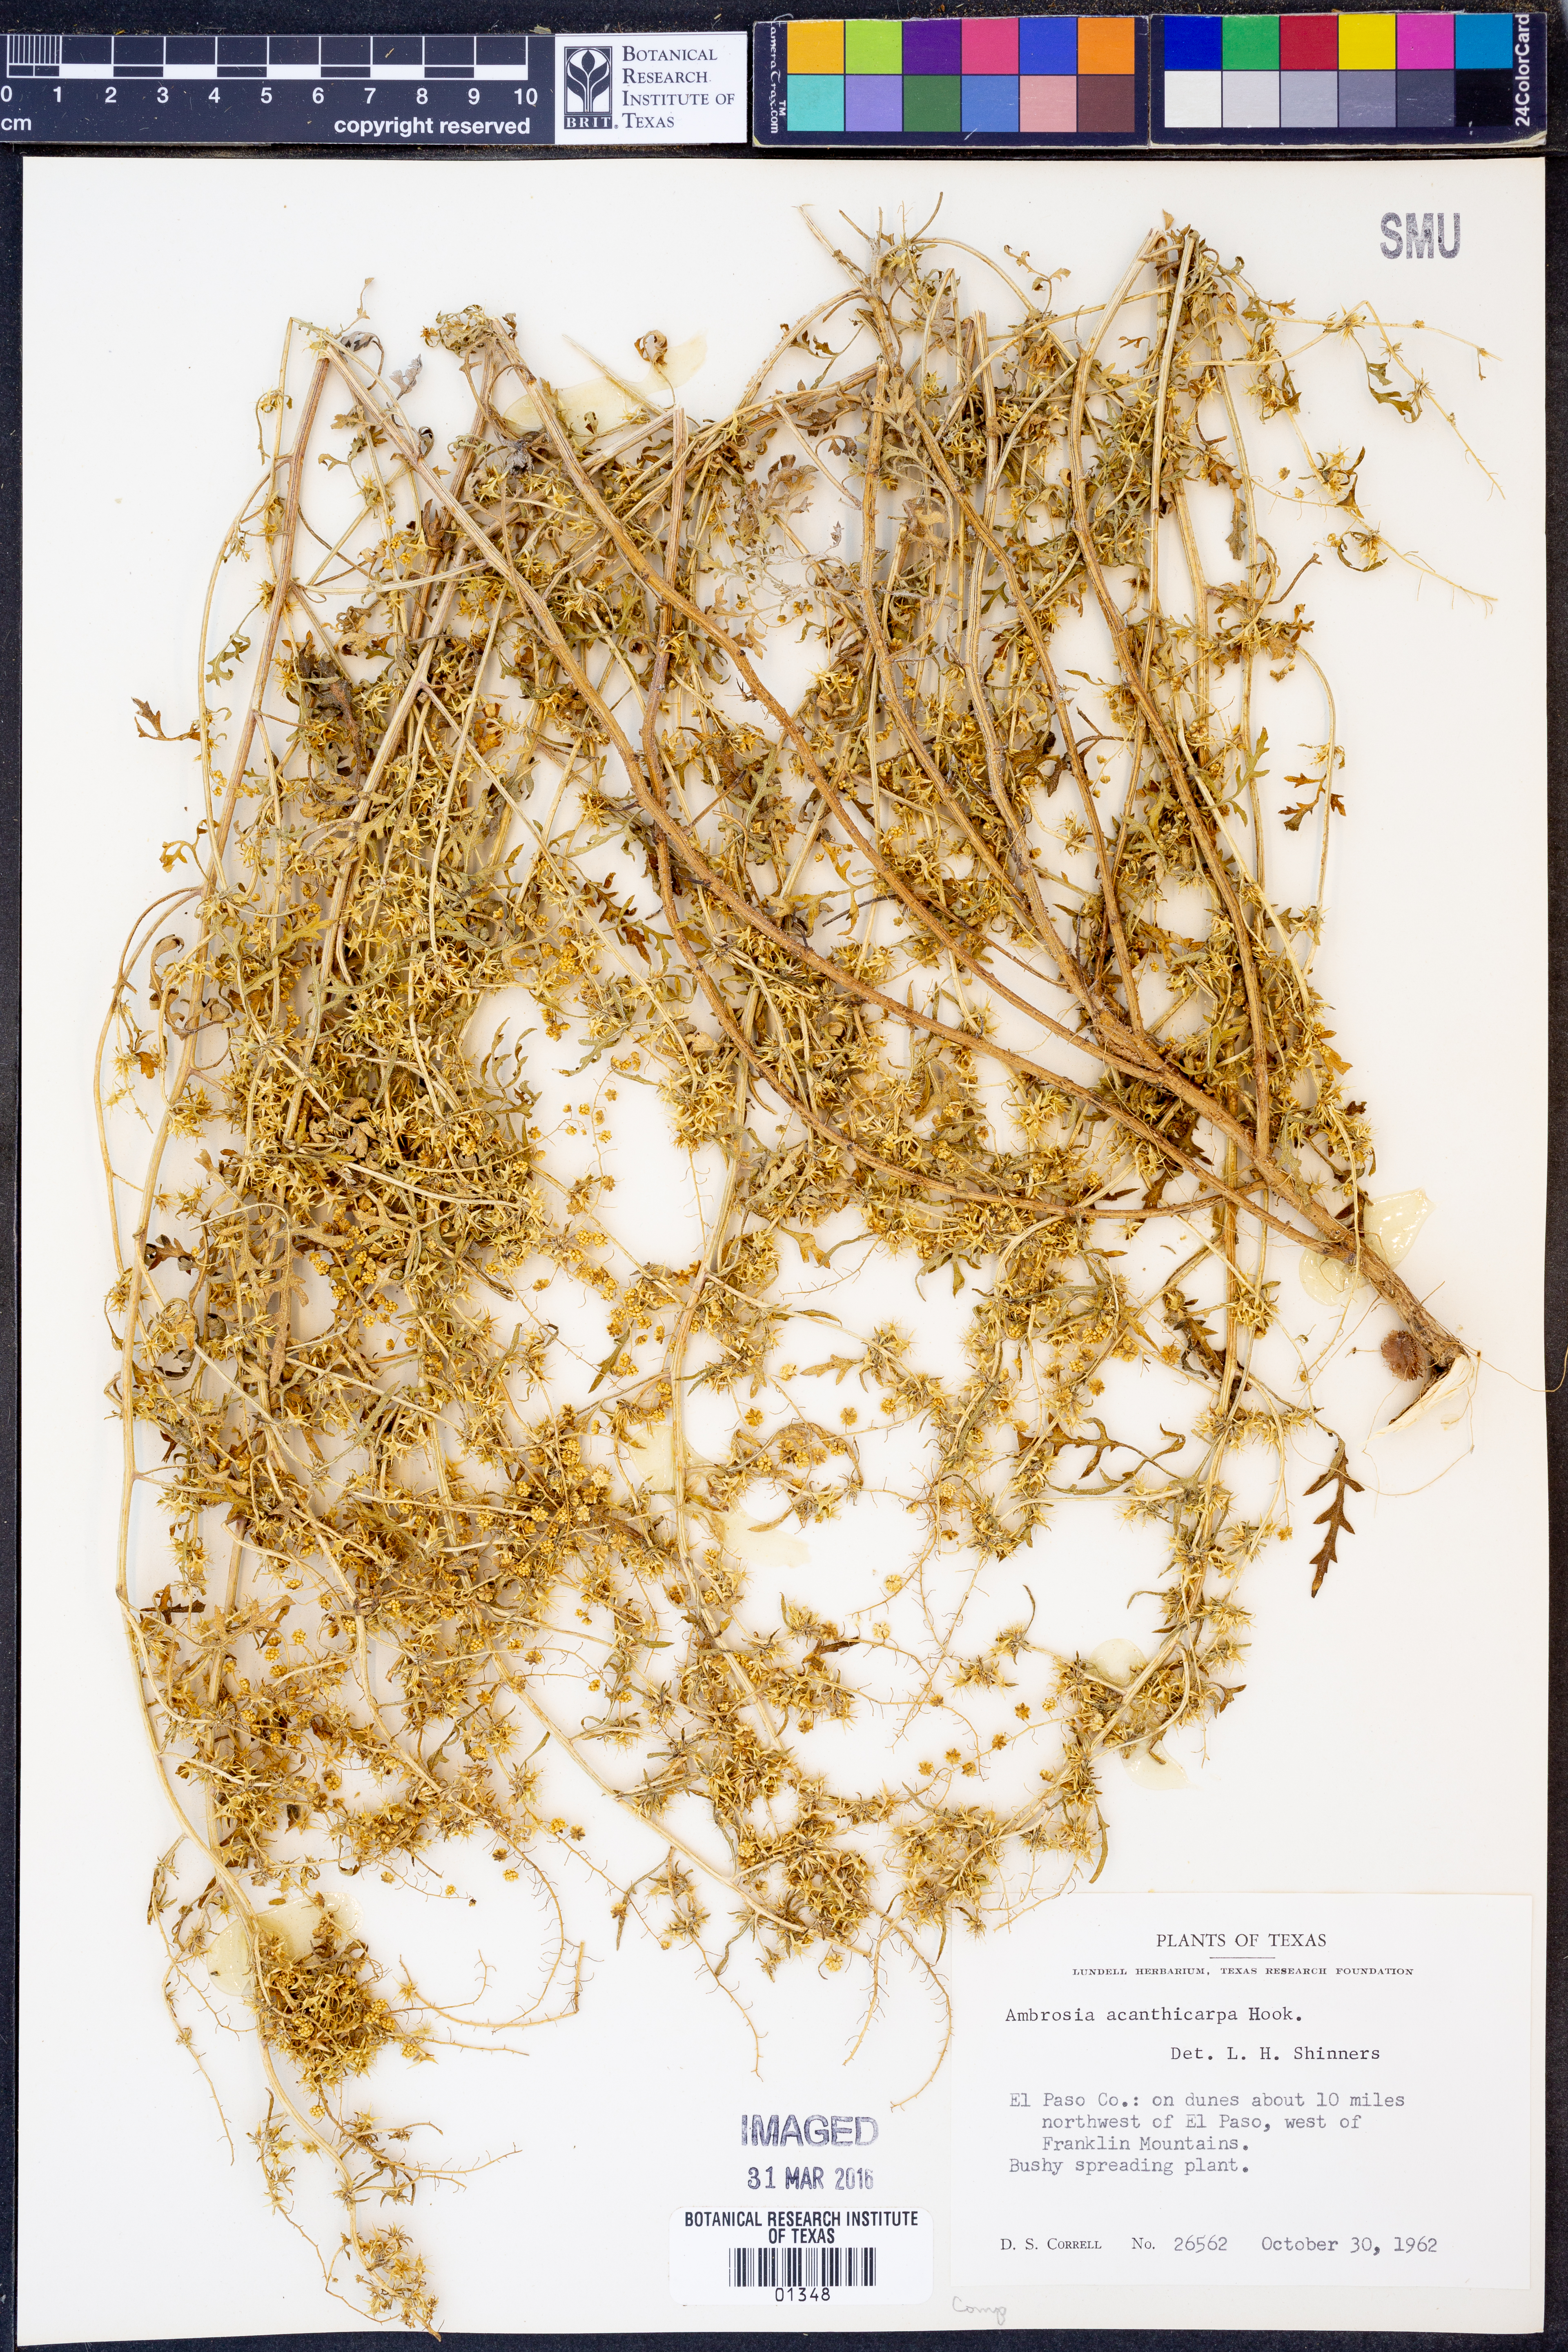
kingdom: Plantae
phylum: Tracheophyta
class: Magnoliopsida
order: Asterales
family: Asteraceae
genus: Ambrosia
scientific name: Ambrosia acanthicarpa
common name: Hooker's bur ragweed
